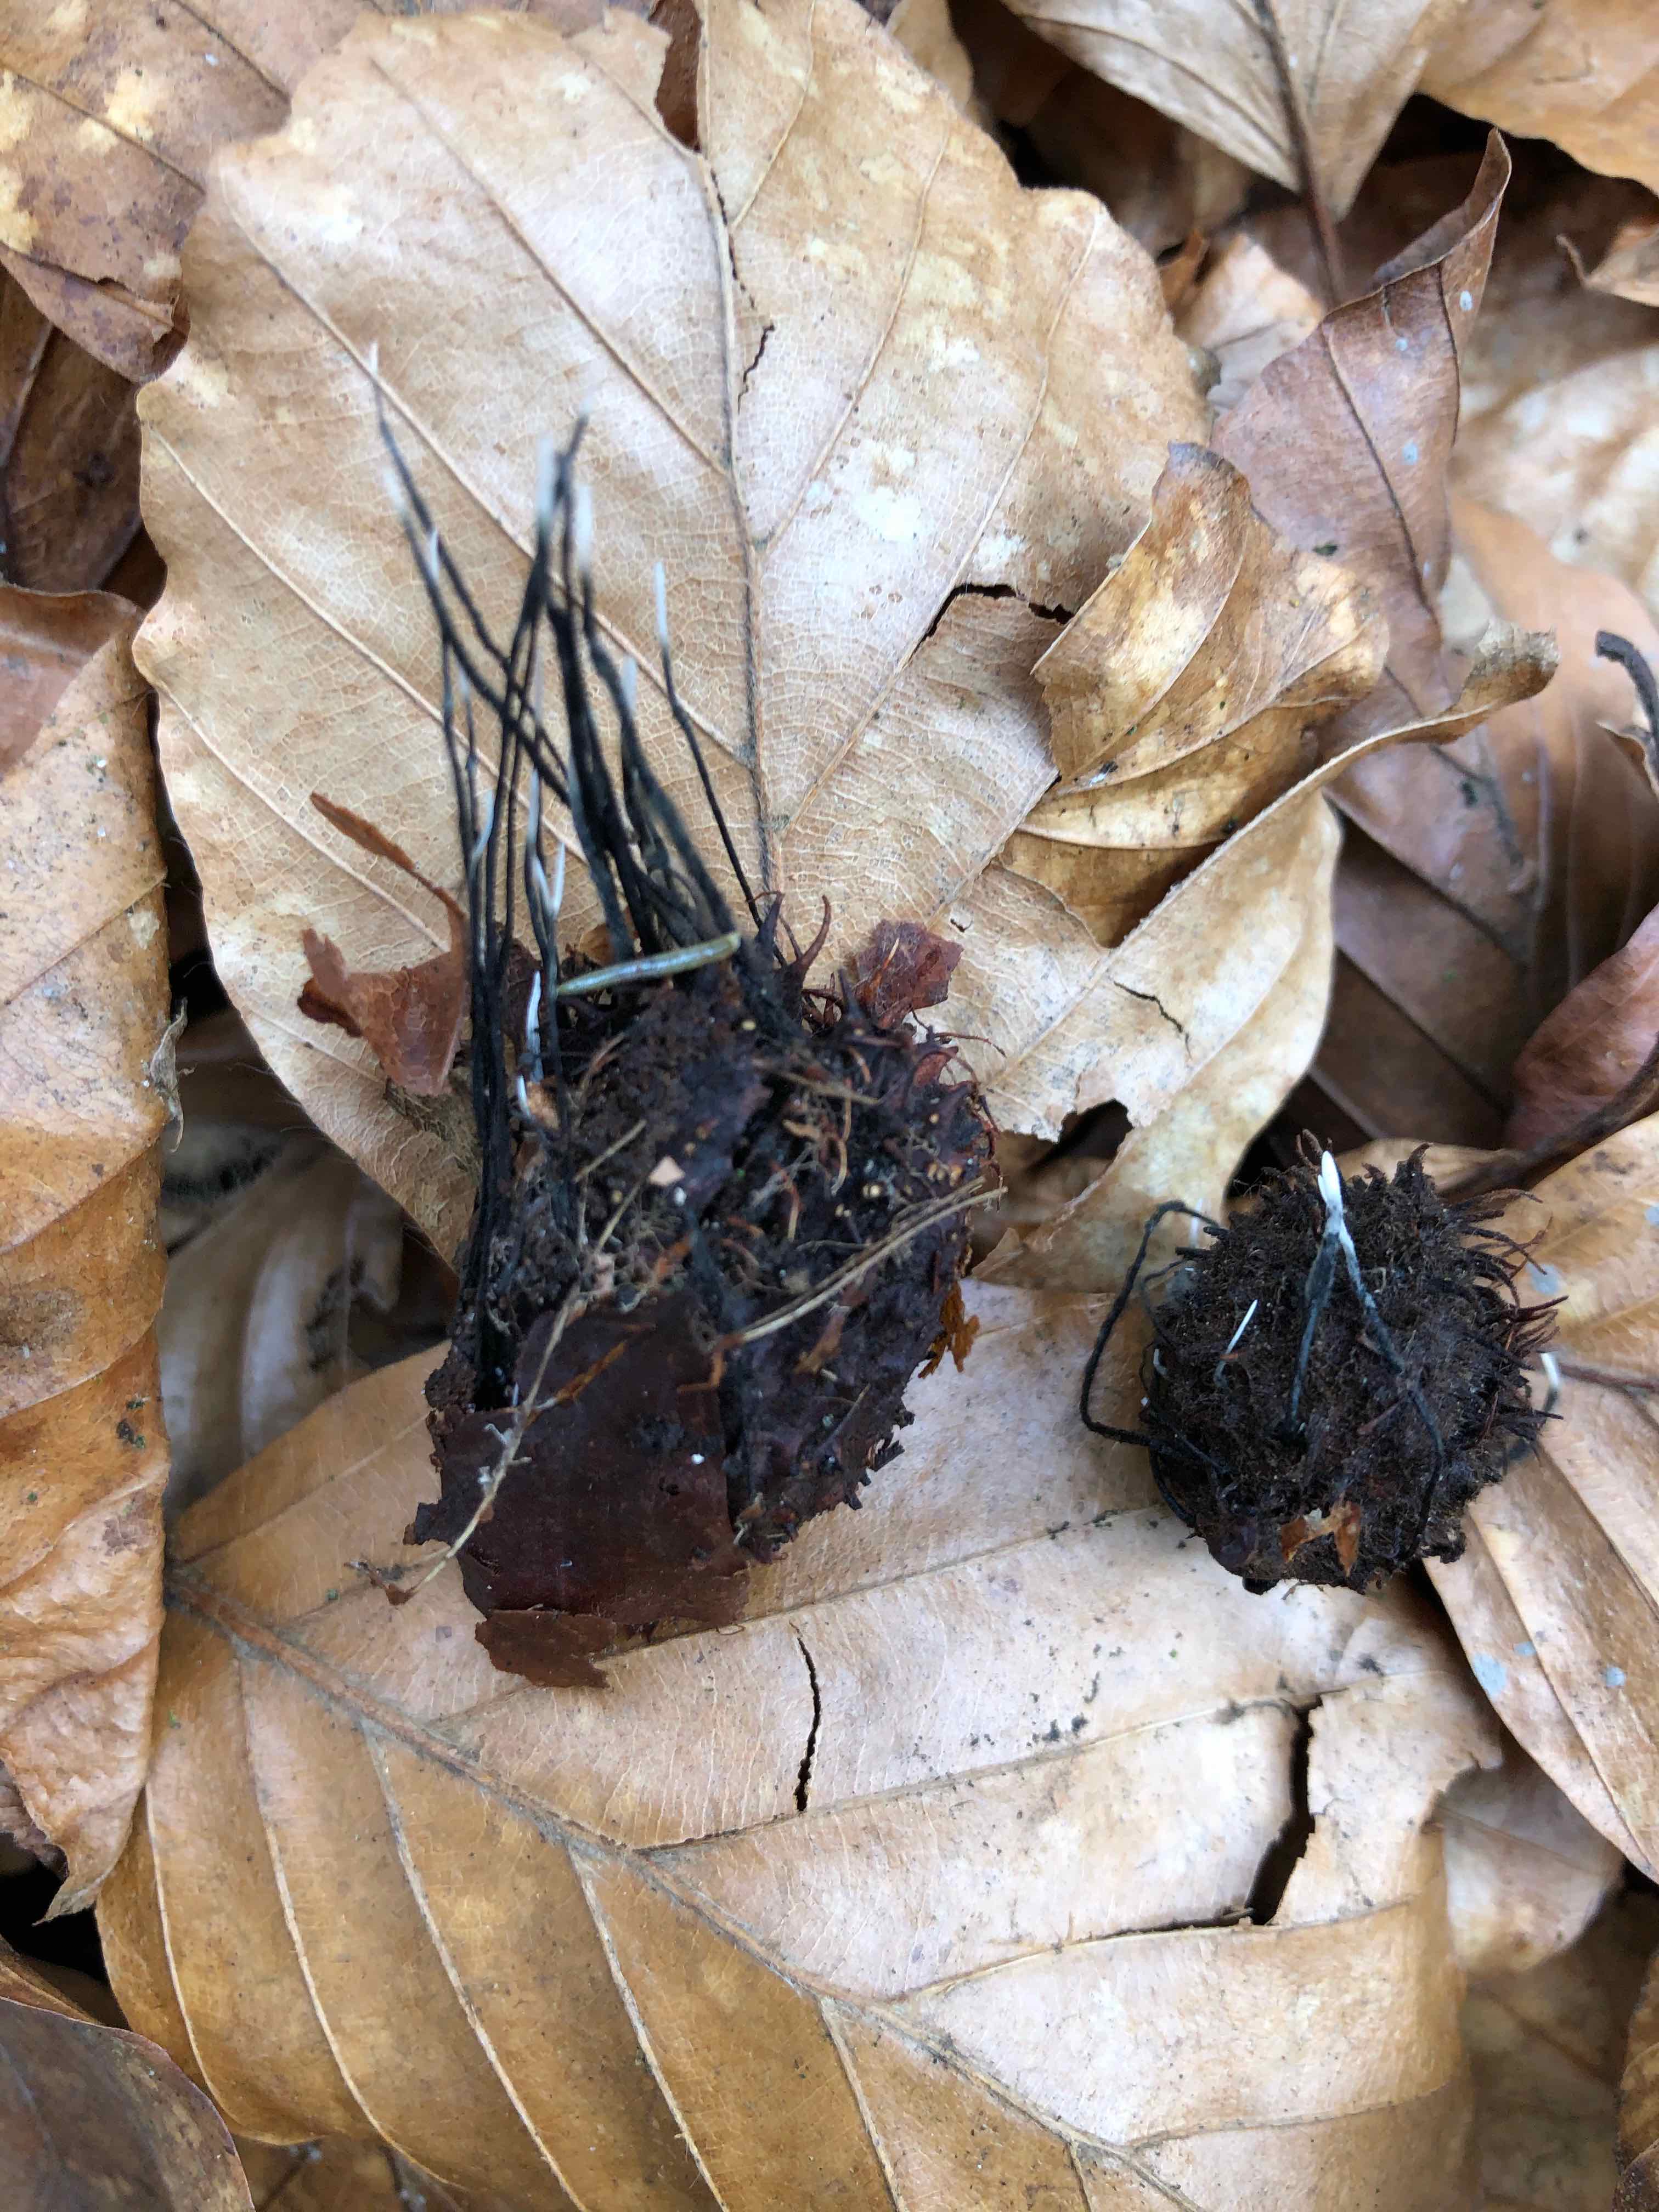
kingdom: Fungi
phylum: Ascomycota
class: Sordariomycetes
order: Xylariales
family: Xylariaceae
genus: Xylaria
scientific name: Xylaria carpophila
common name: bogskål-stødsvamp
